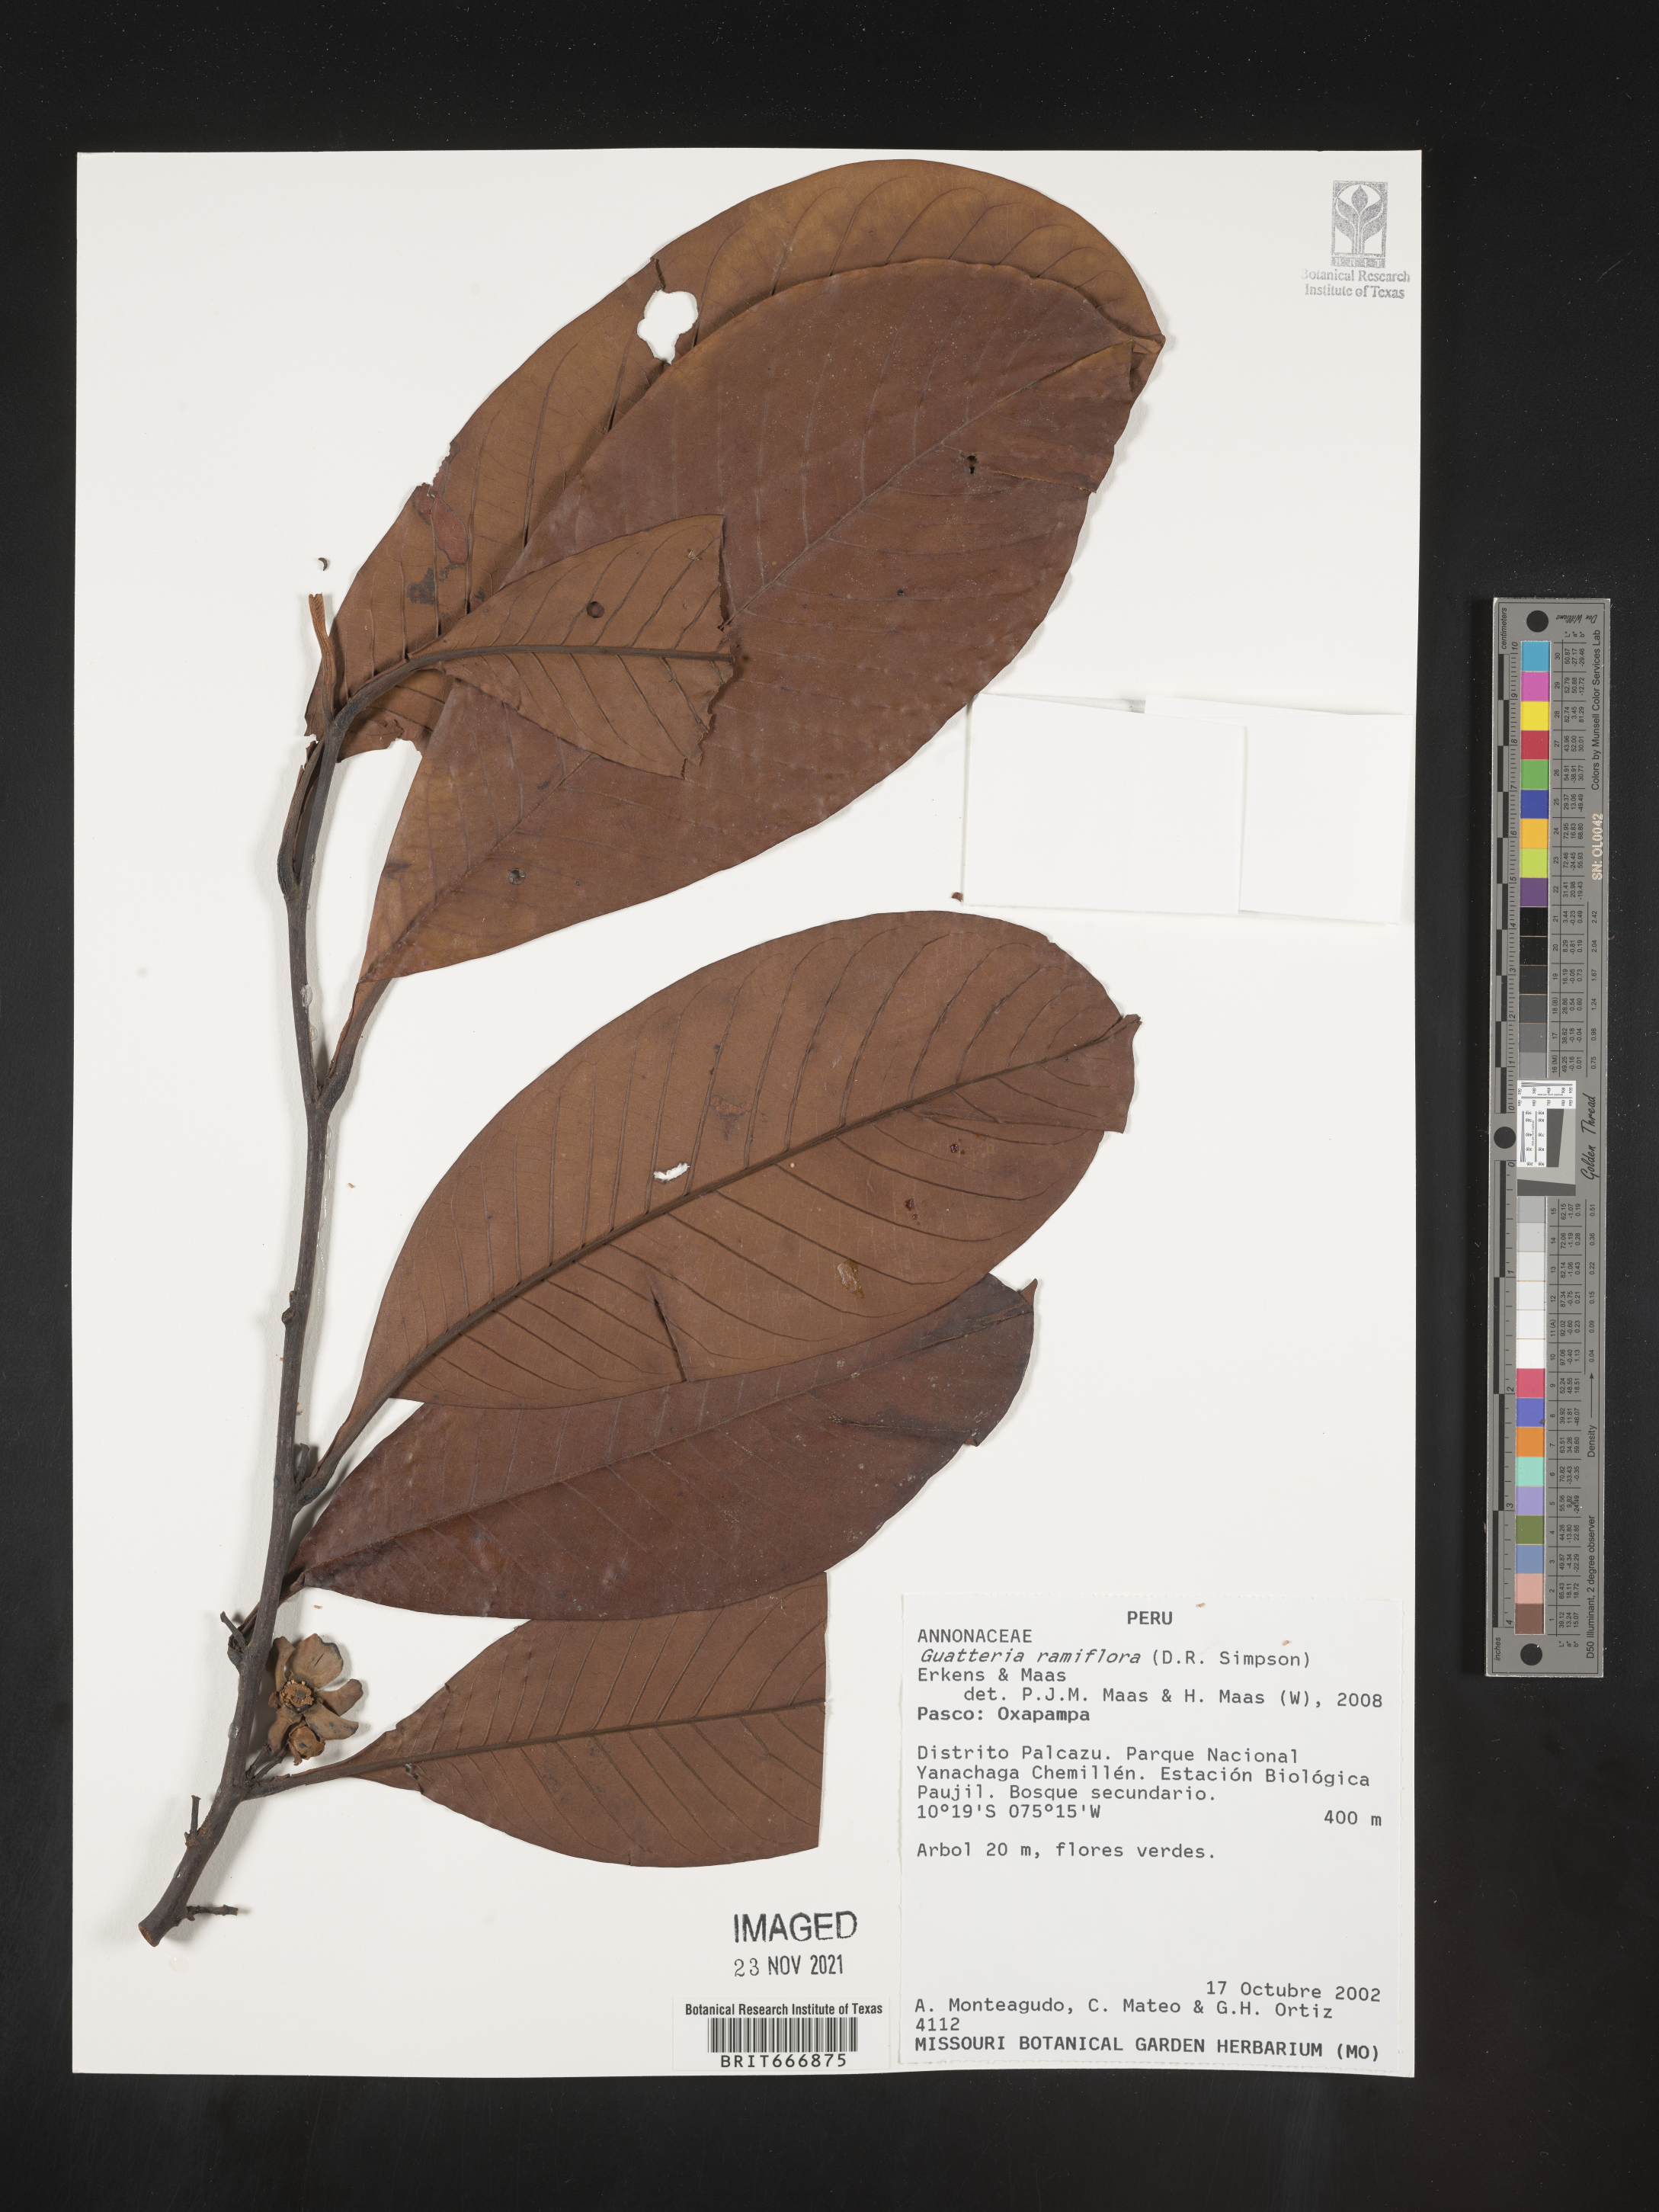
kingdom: Plantae
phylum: Tracheophyta
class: Magnoliopsida
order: Magnoliales
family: Annonaceae
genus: Guatteria
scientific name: Guatteria
